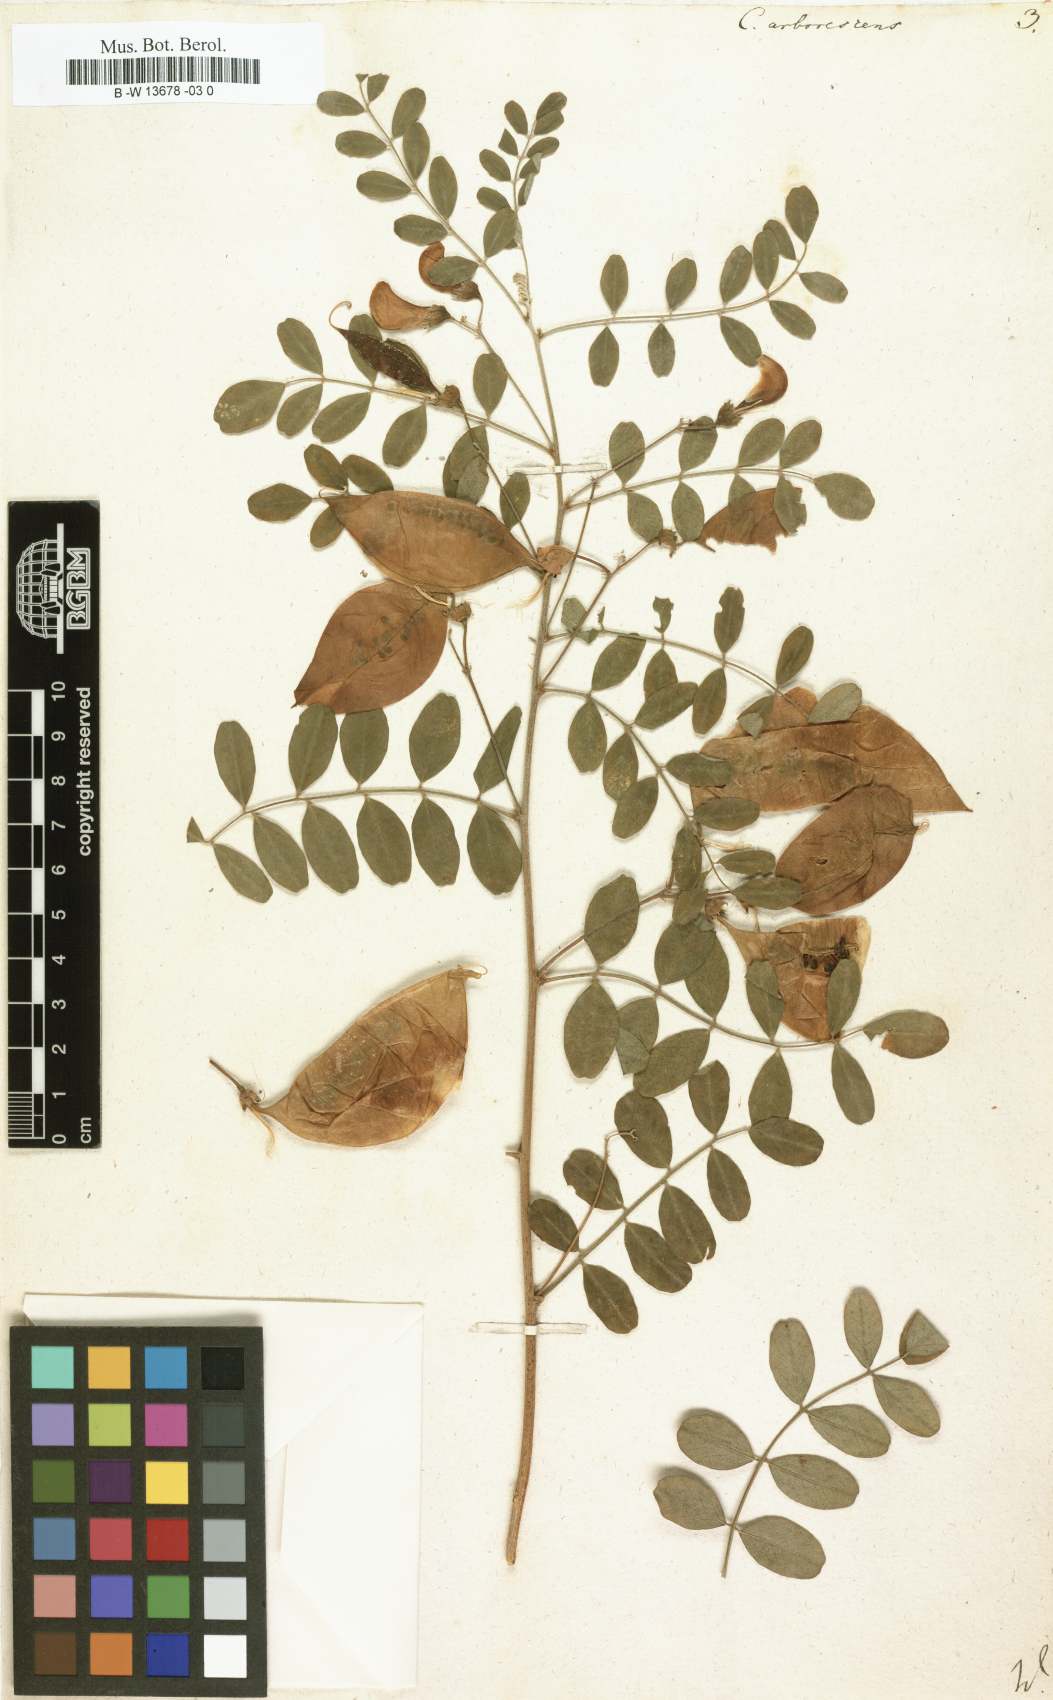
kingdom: Plantae
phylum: Tracheophyta
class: Magnoliopsida
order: Fabales
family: Fabaceae
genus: Colutea
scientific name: Colutea arborescens
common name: Bladder-senna
